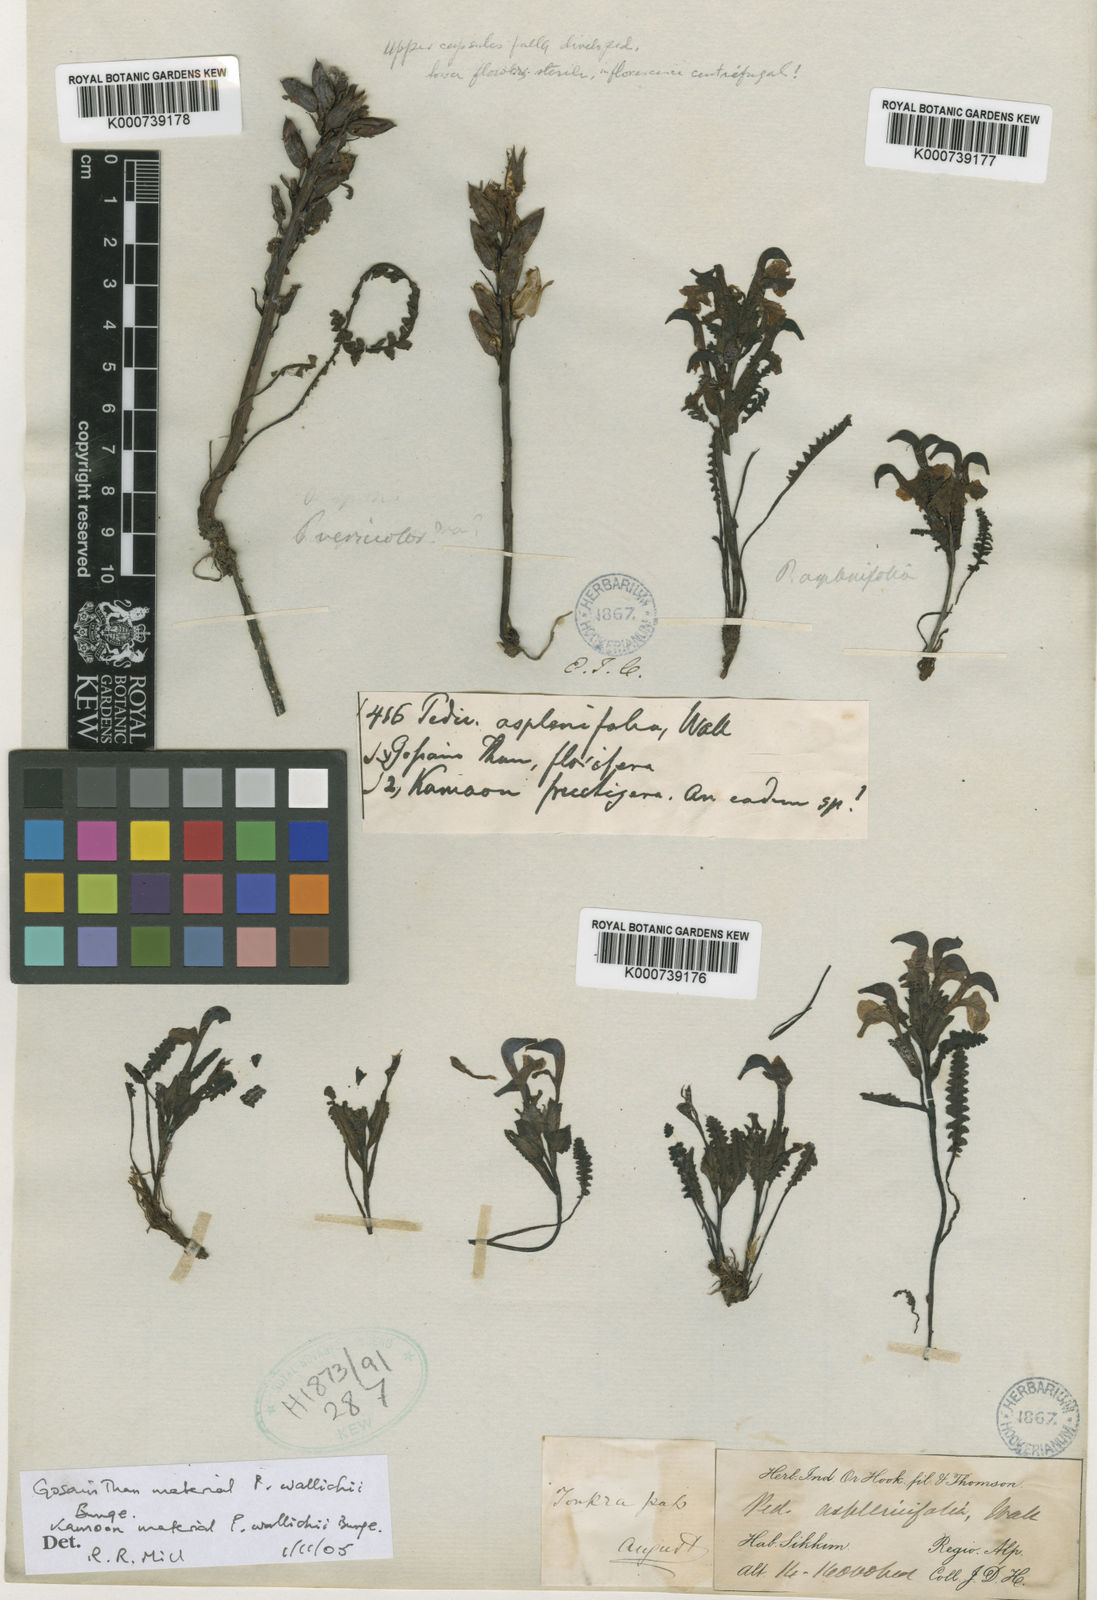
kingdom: Plantae
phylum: Tracheophyta
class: Magnoliopsida
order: Lamiales
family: Orobanchaceae
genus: Pedicularis
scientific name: Pedicularis wallichii
